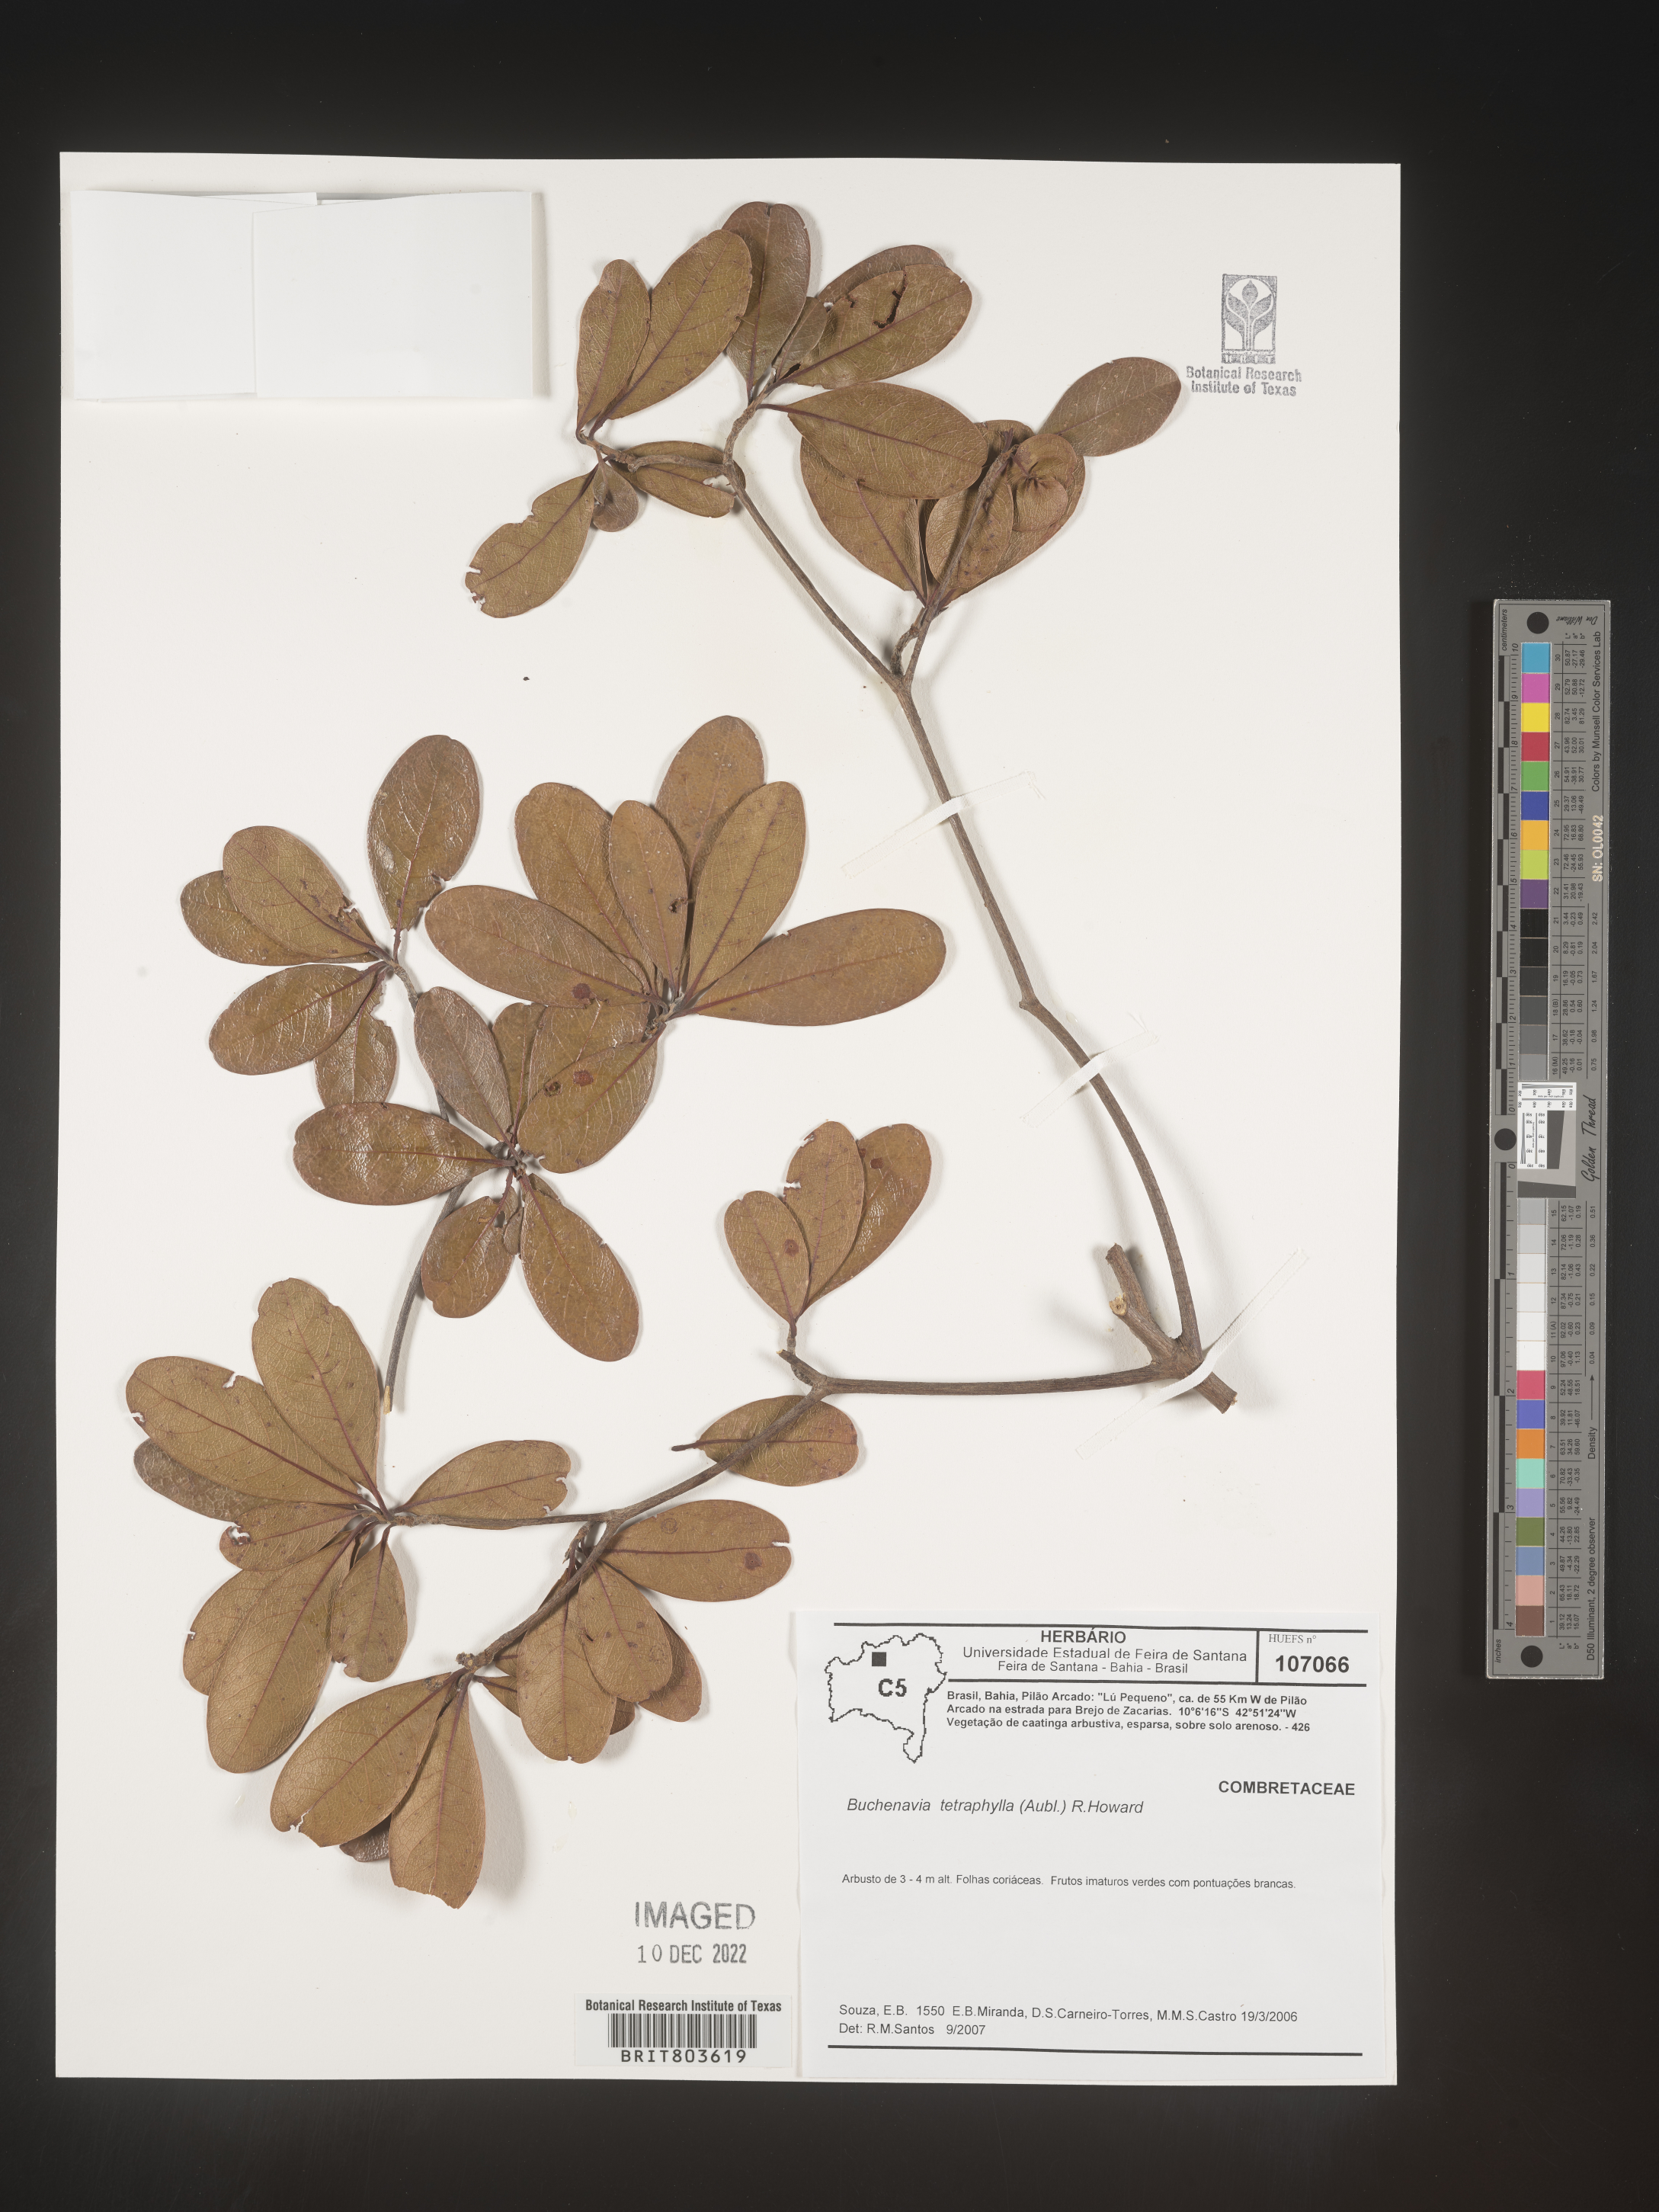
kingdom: Plantae
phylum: Tracheophyta
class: Magnoliopsida
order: Myrtales
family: Combretaceae
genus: Terminalia
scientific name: Terminalia
